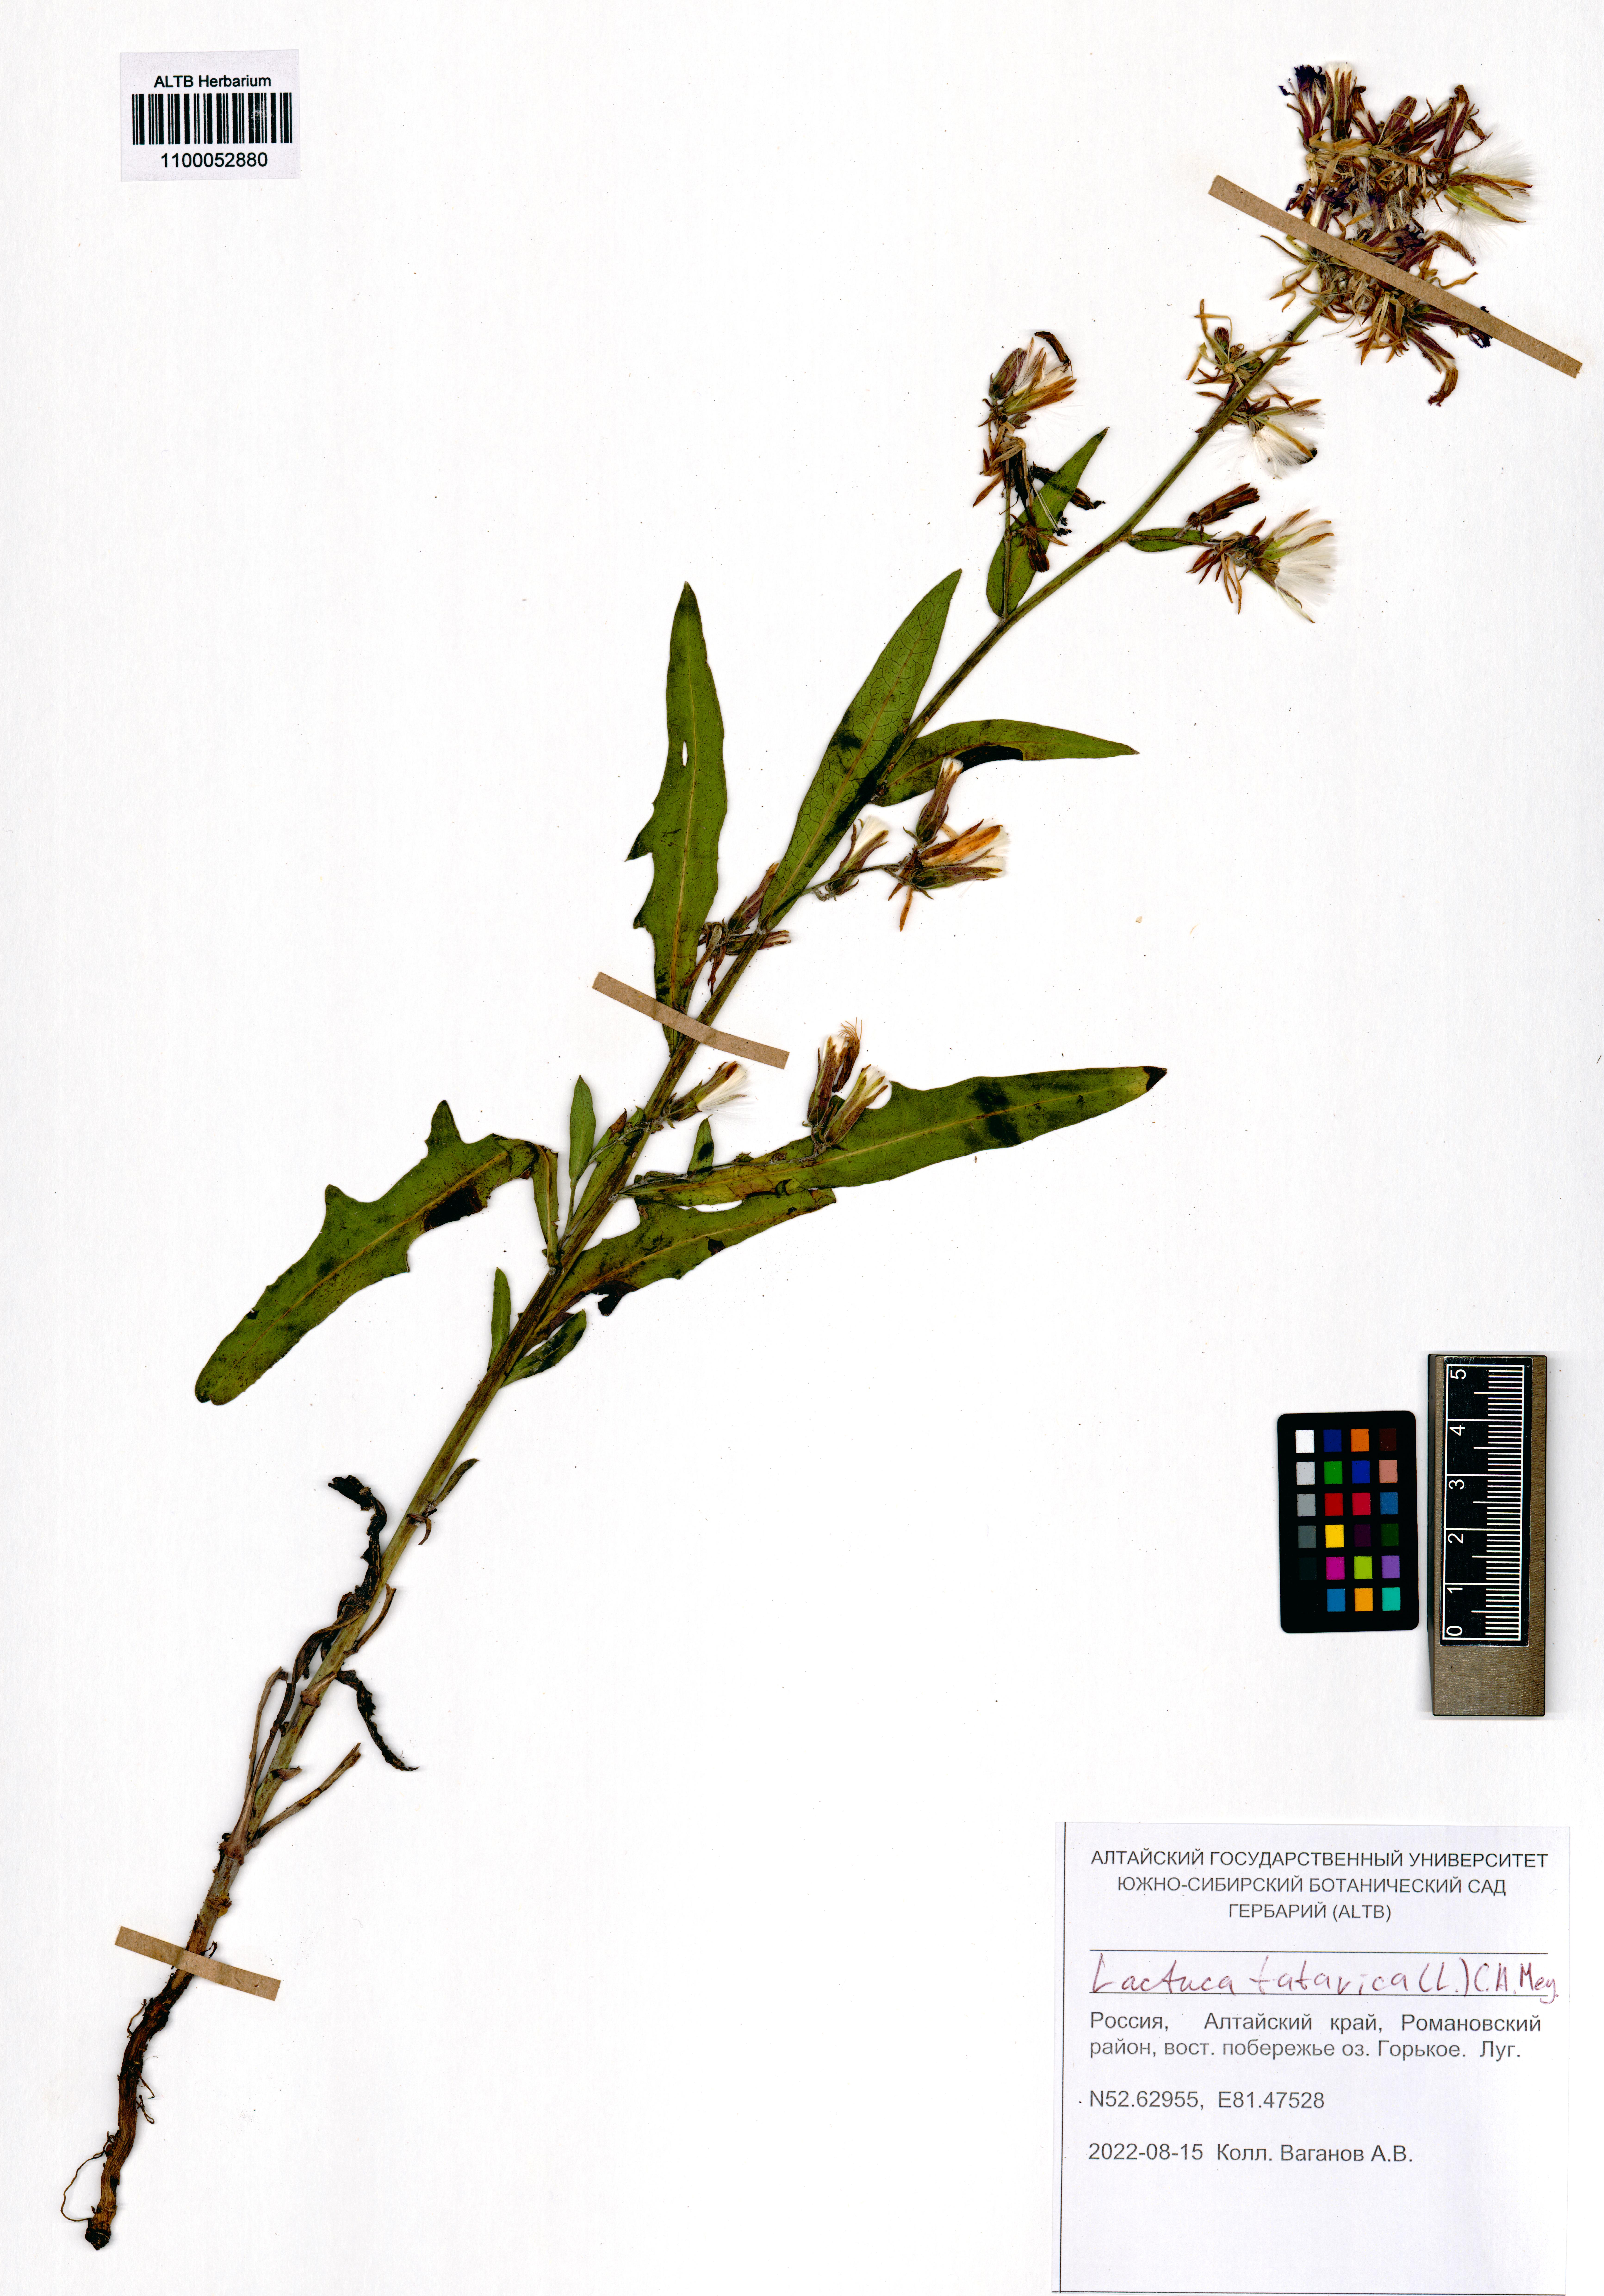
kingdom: Plantae
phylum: Tracheophyta
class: Magnoliopsida
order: Asterales
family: Asteraceae
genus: Lactuca
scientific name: Lactuca tatarica
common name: Blue lettuce
